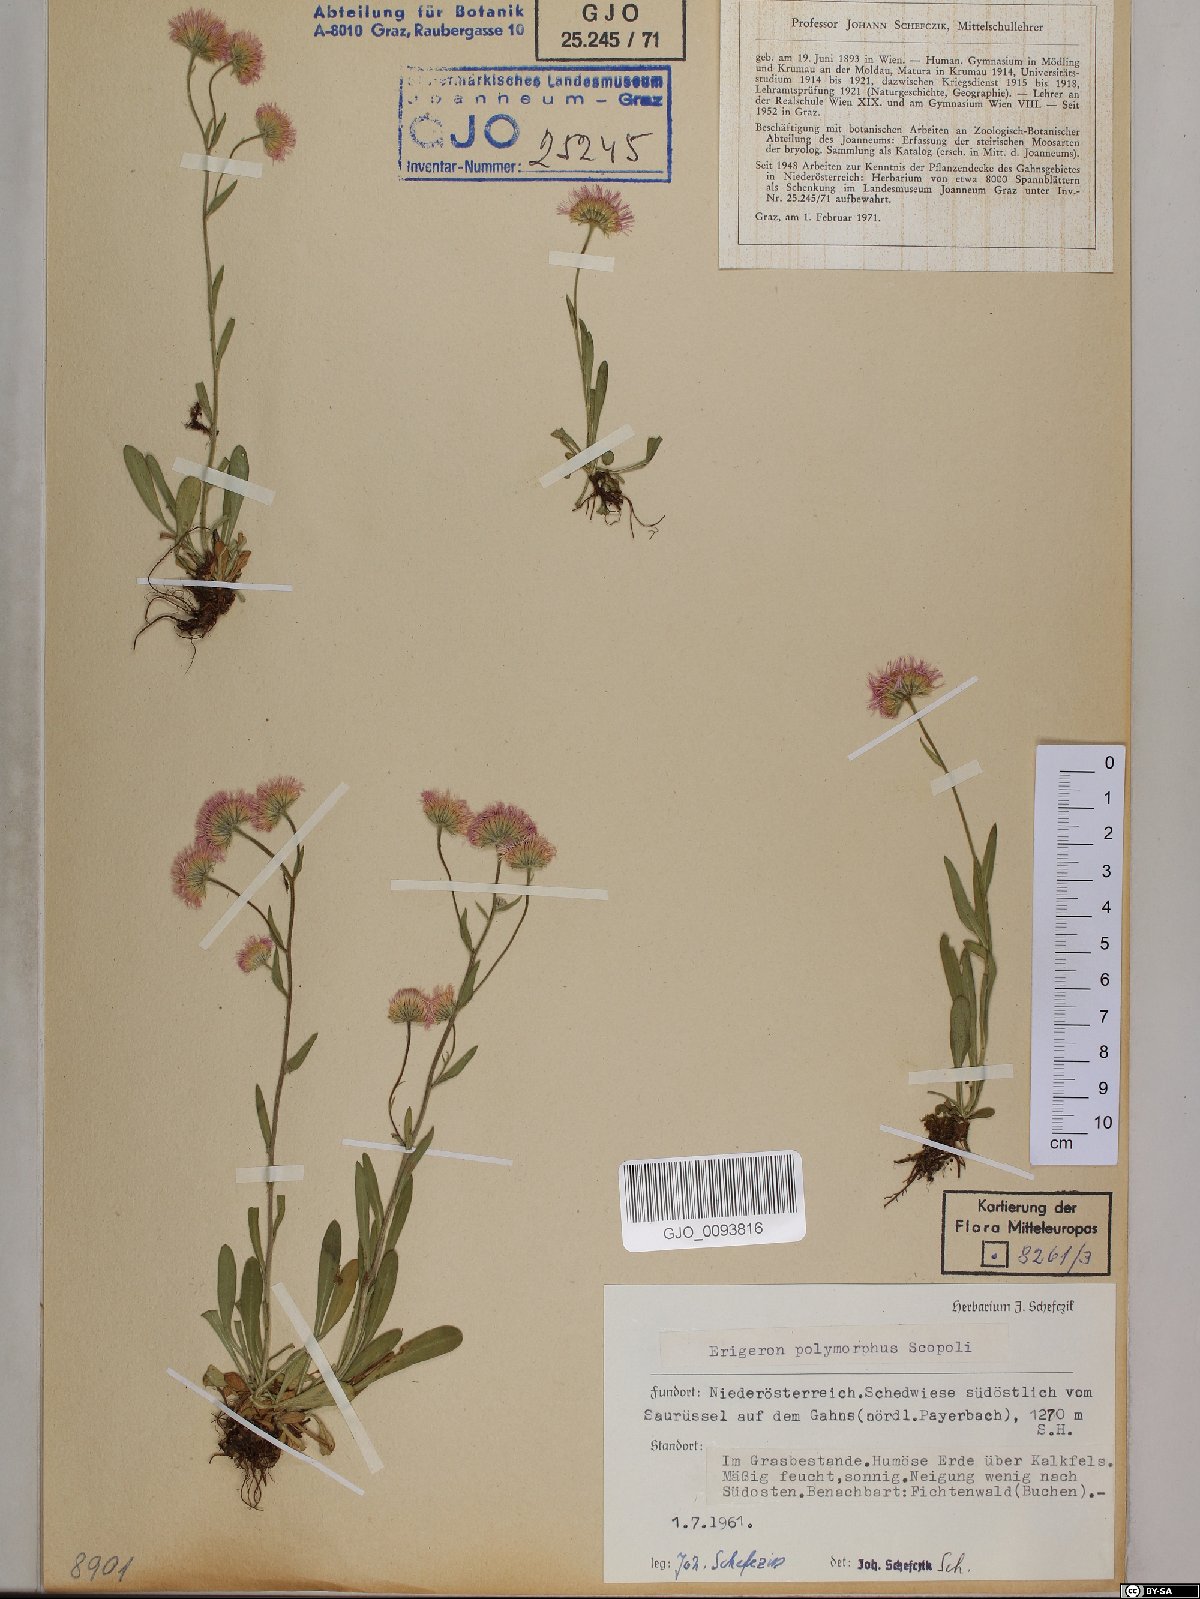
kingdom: Plantae
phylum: Tracheophyta
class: Magnoliopsida
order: Asterales
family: Asteraceae
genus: Erigeron
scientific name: Erigeron alpinus
